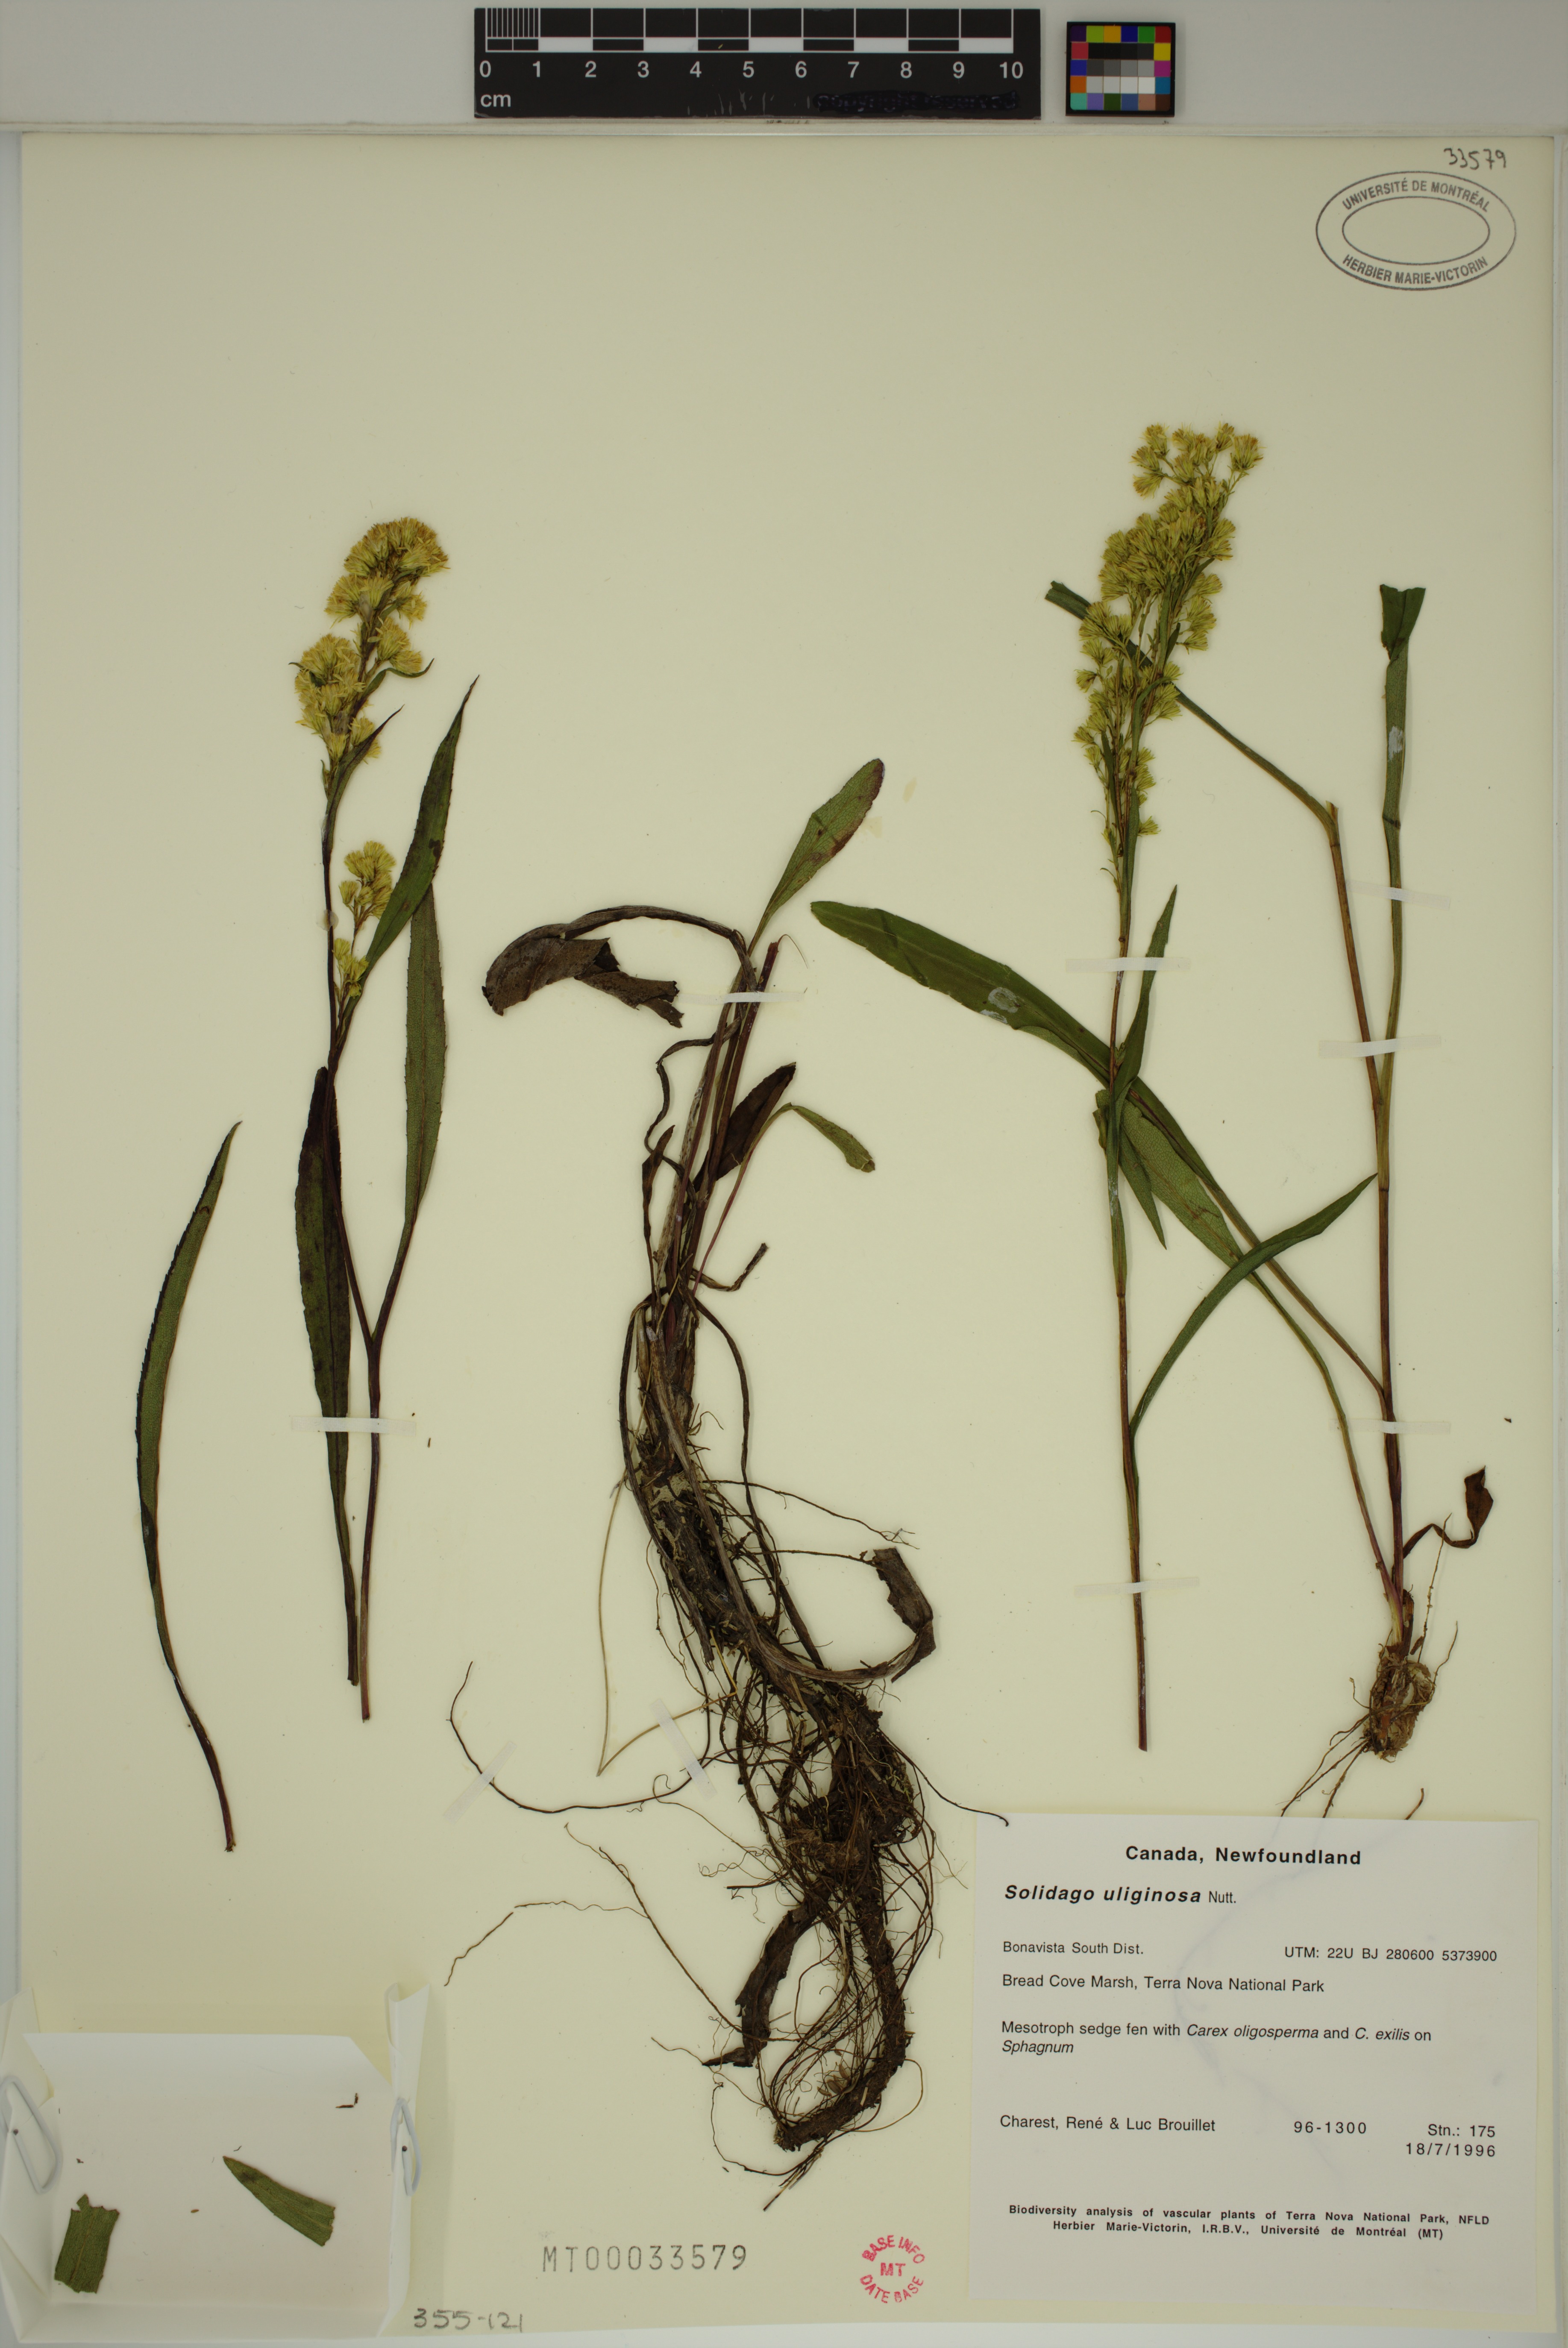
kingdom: Plantae
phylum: Tracheophyta
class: Magnoliopsida
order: Asterales
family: Asteraceae
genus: Solidago
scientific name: Solidago uliginosa
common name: Bog goldenrod
